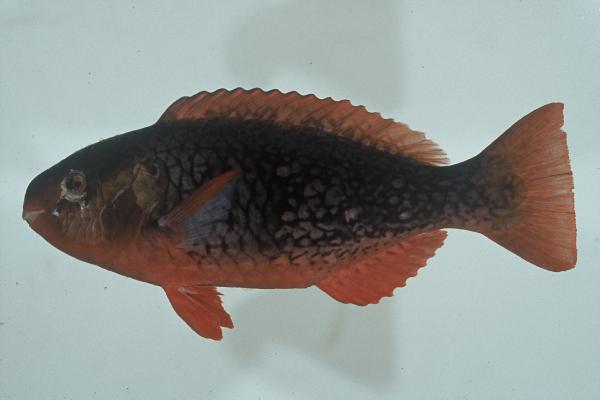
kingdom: Animalia
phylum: Chordata
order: Perciformes
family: Scaridae
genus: Scarus
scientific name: Scarus rubroviolaceus
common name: Ember parrotfish
